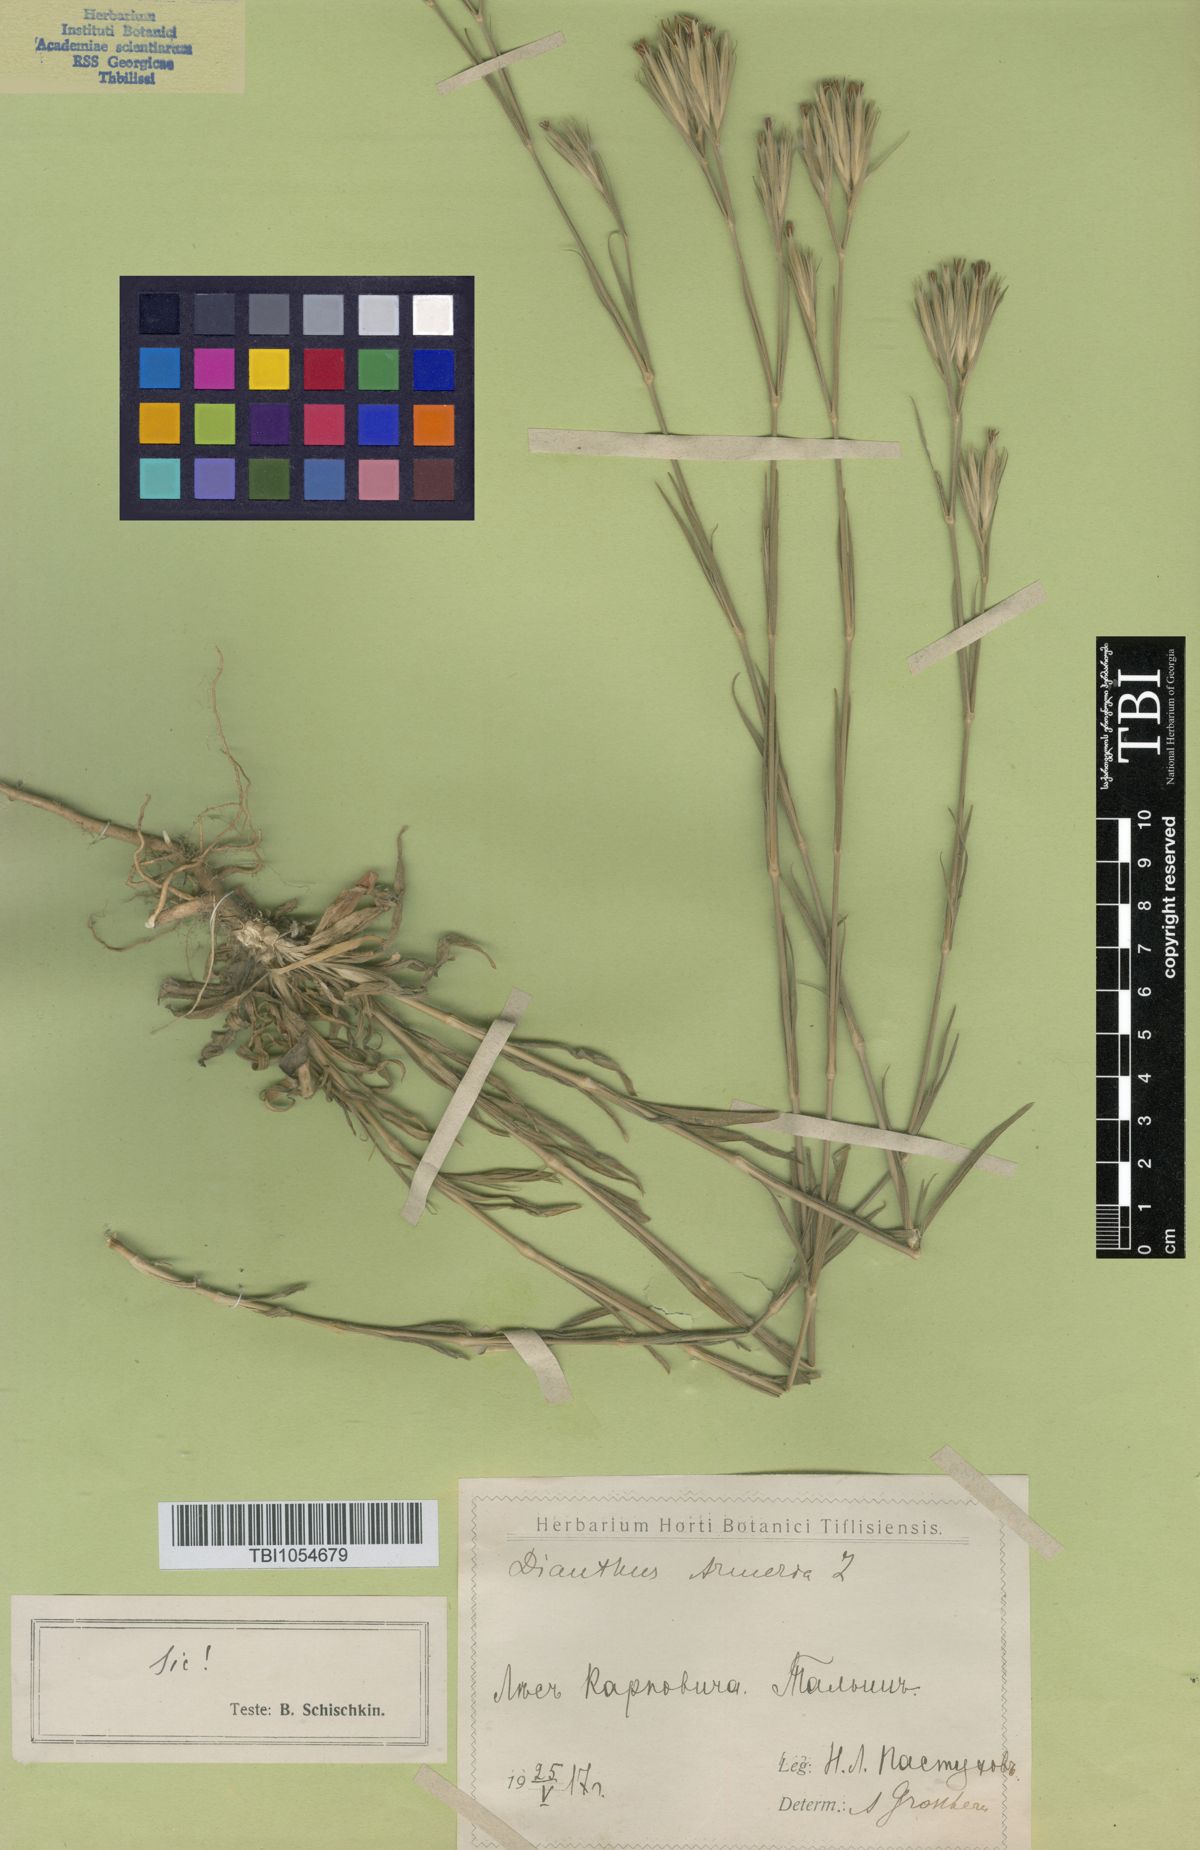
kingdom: Plantae
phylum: Tracheophyta
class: Magnoliopsida
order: Caryophyllales
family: Caryophyllaceae
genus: Dianthus
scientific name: Dianthus armeria
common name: Deptford pink
